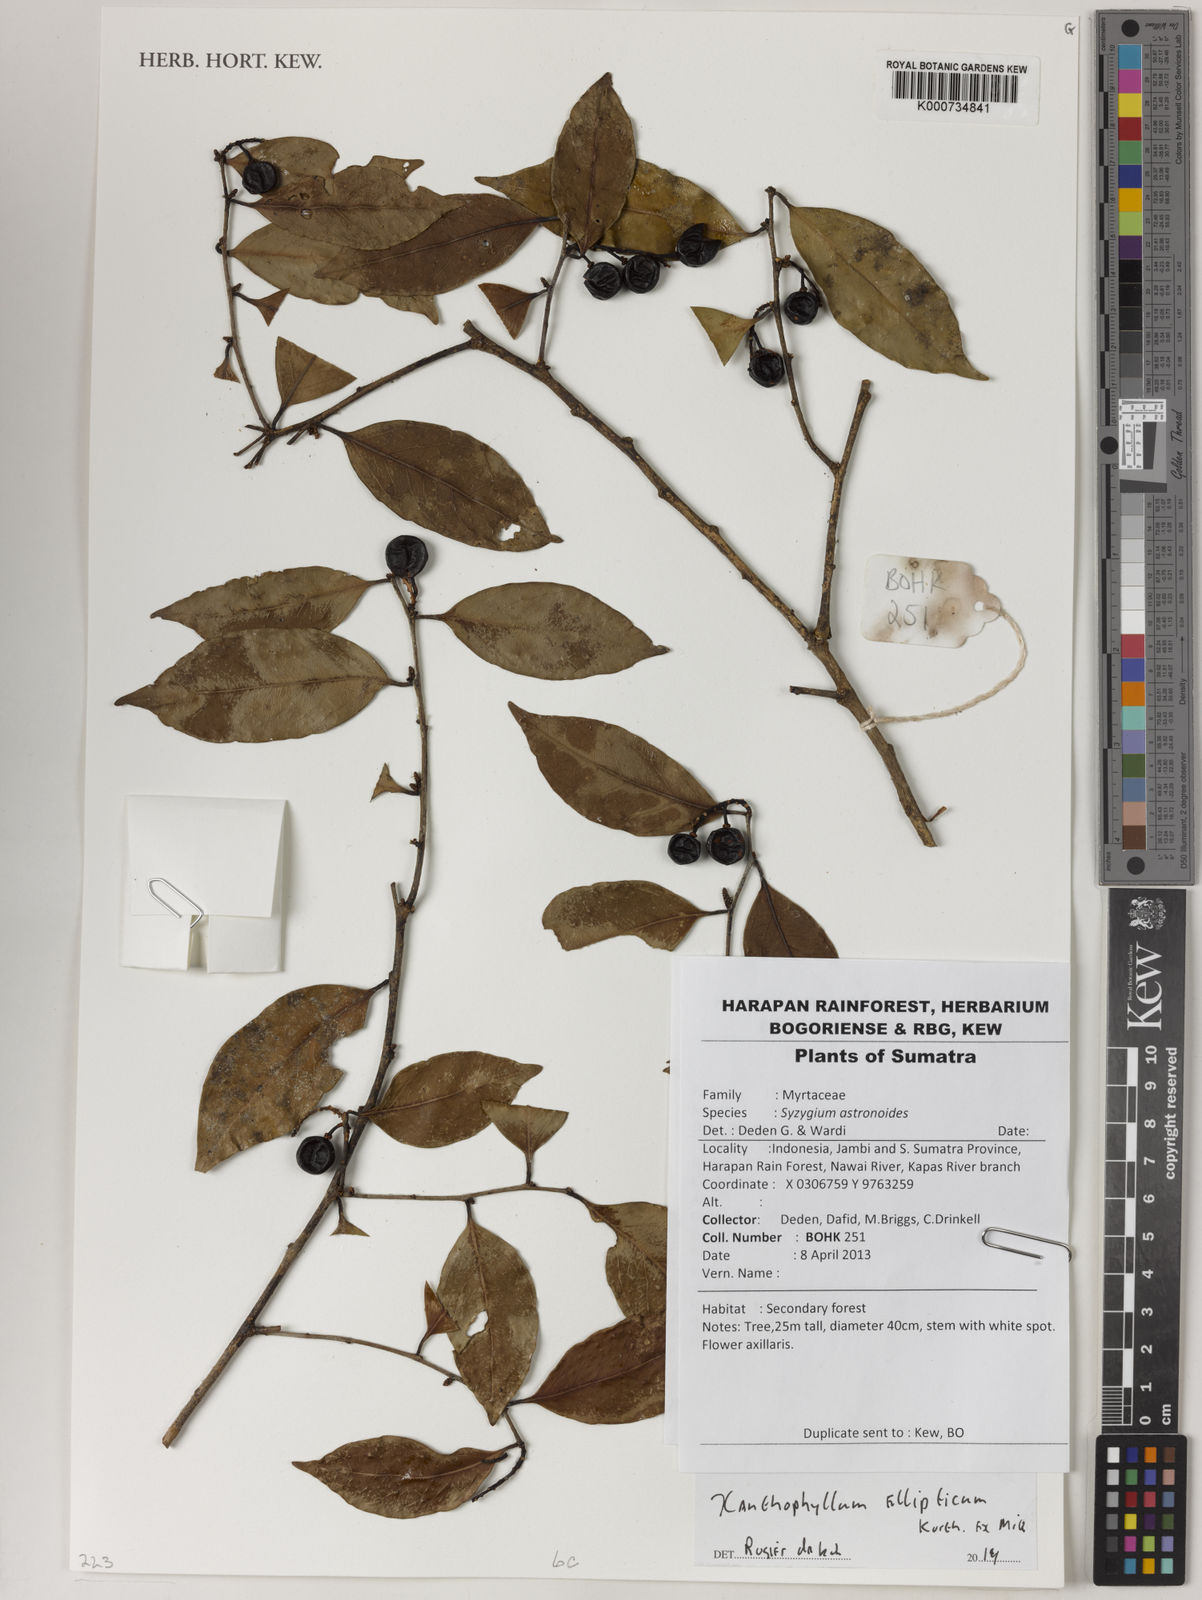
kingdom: Plantae
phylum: Tracheophyta
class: Magnoliopsida
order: Fabales
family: Polygalaceae
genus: Xanthophyllum
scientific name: Xanthophyllum ellipticum
